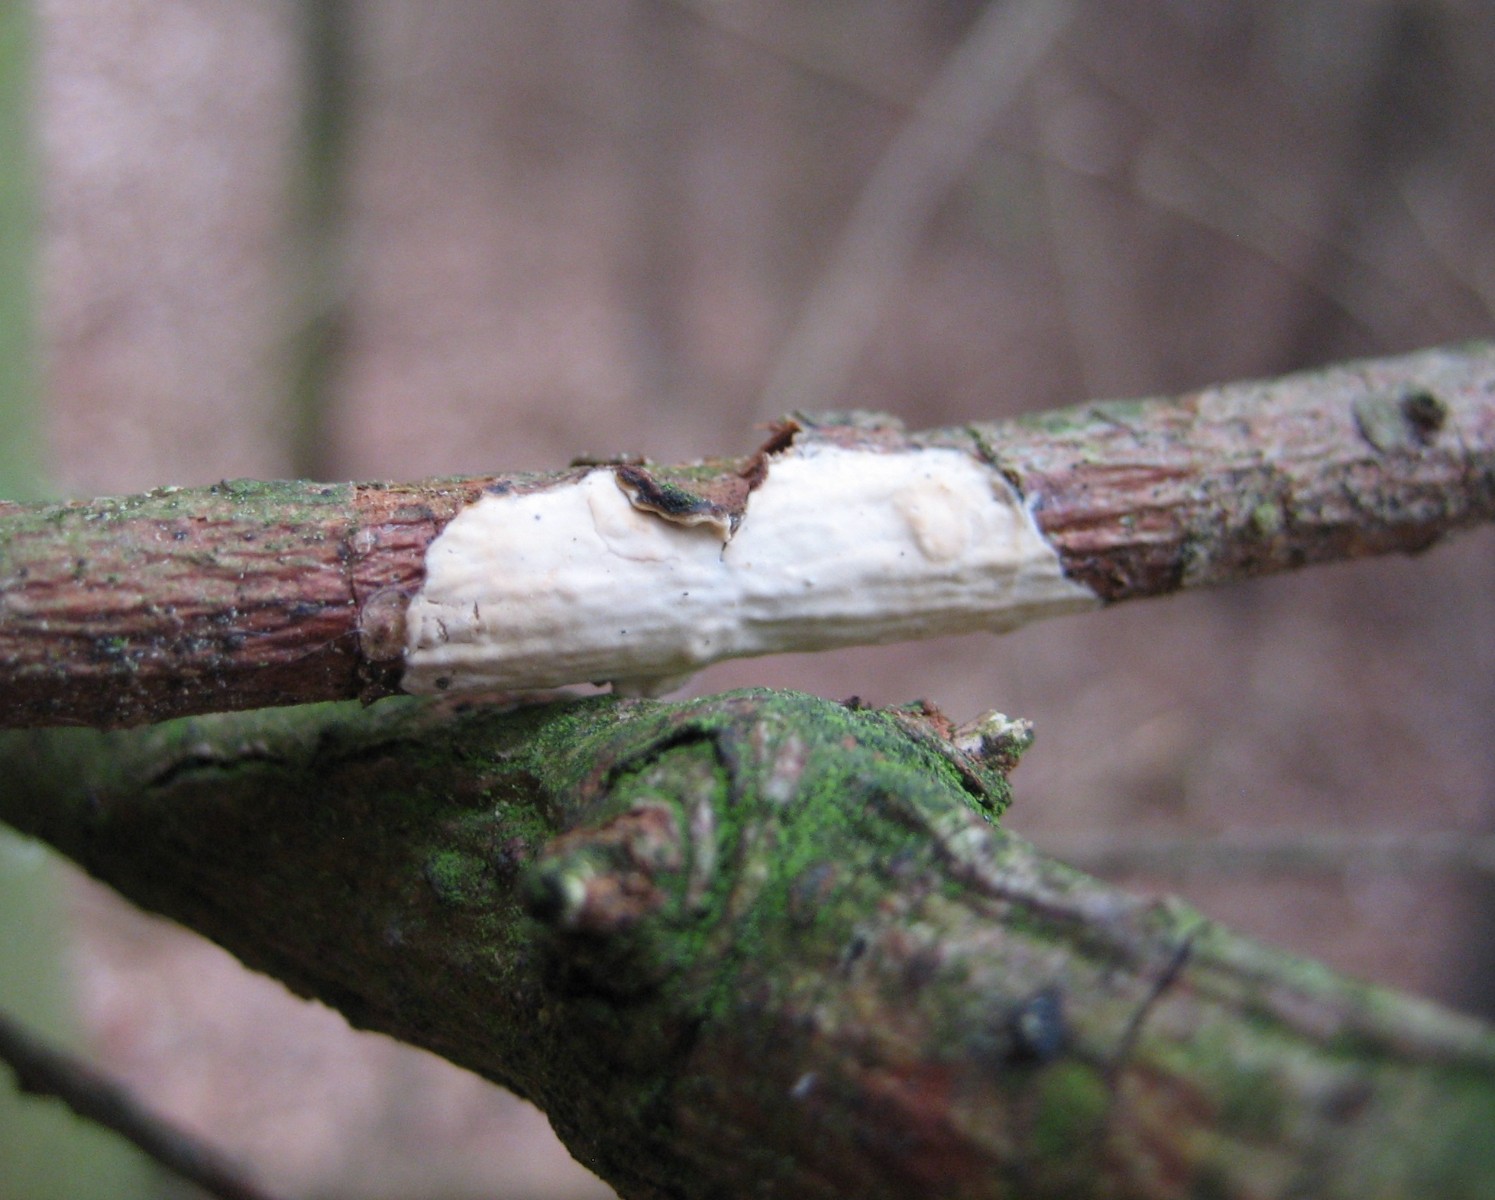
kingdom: Fungi
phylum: Basidiomycota
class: Agaricomycetes
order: Corticiales
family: Corticiaceae
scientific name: Corticiaceae
